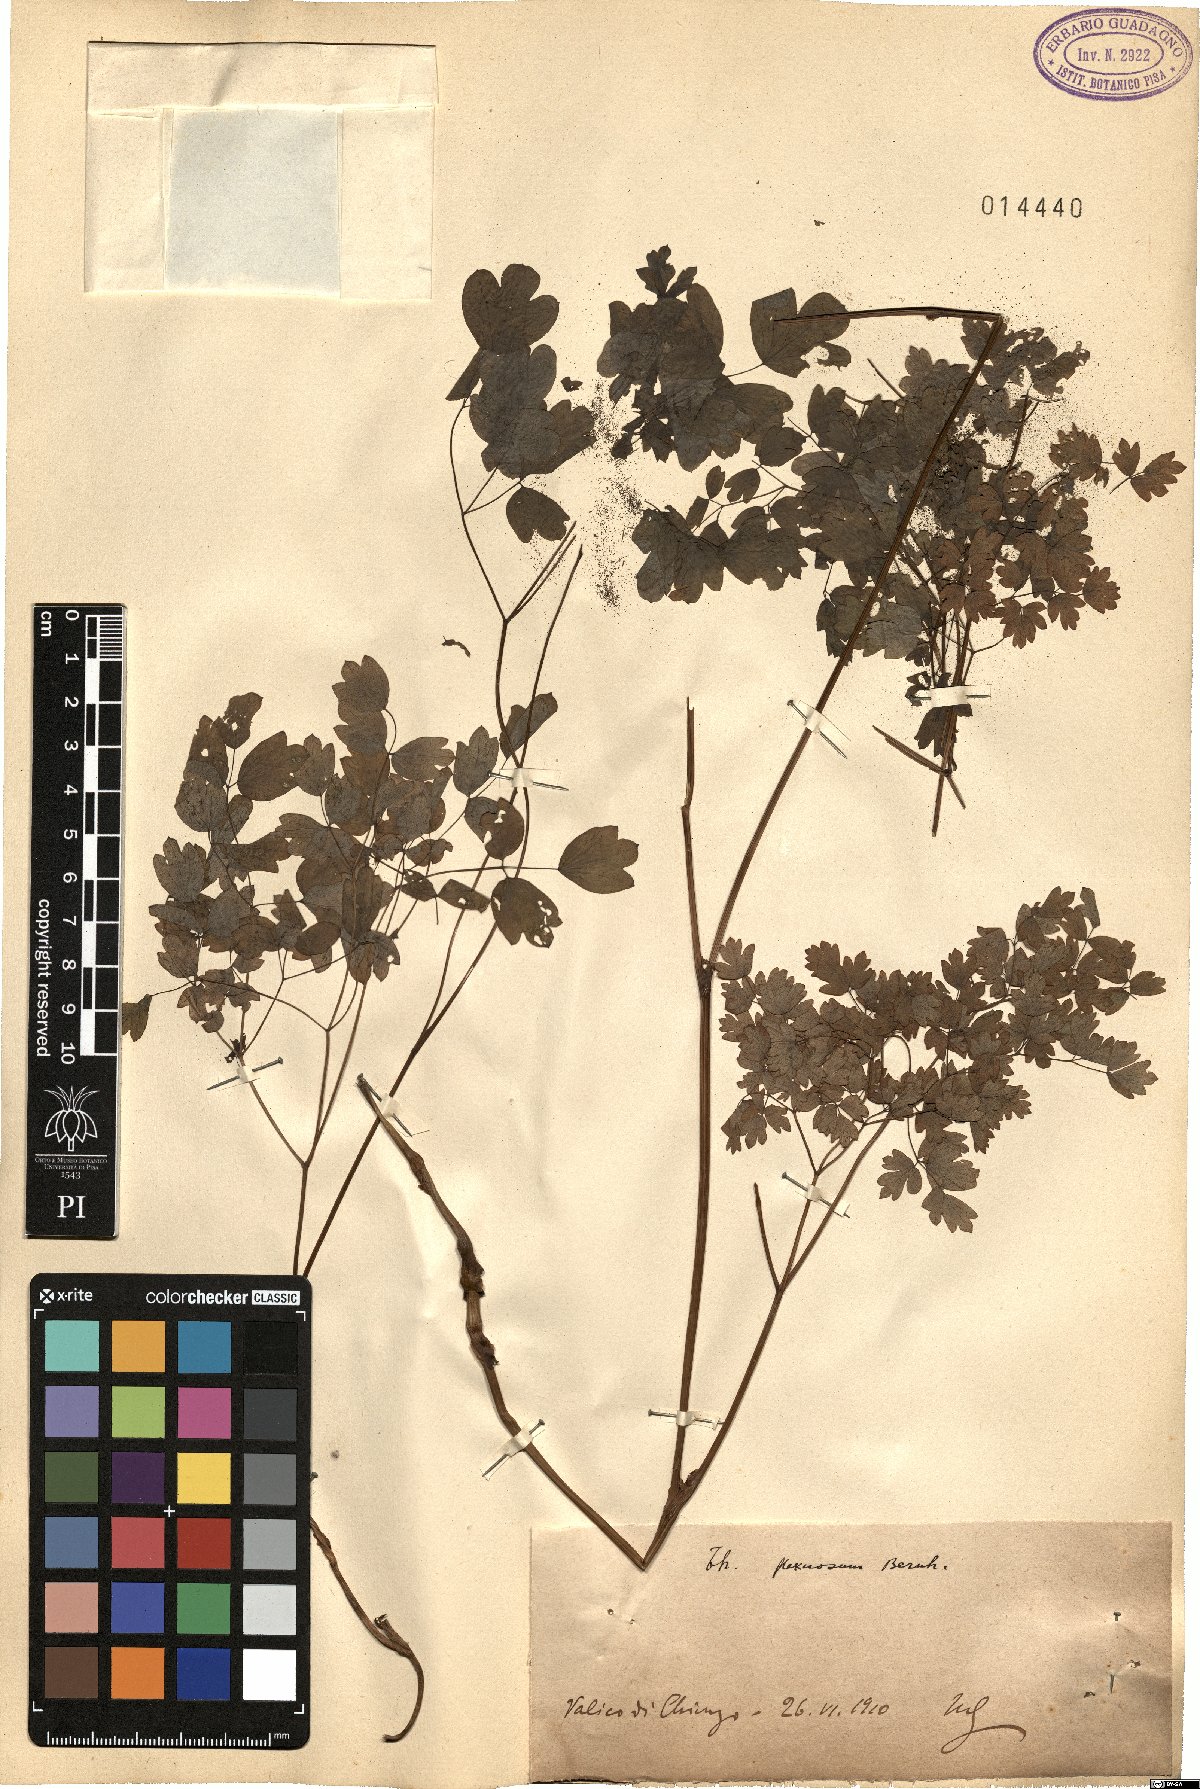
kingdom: Plantae
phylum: Tracheophyta
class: Magnoliopsida
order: Ranunculales
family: Ranunculaceae
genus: Thalictrum
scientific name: Thalictrum minus
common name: Lesser meadow-rue
